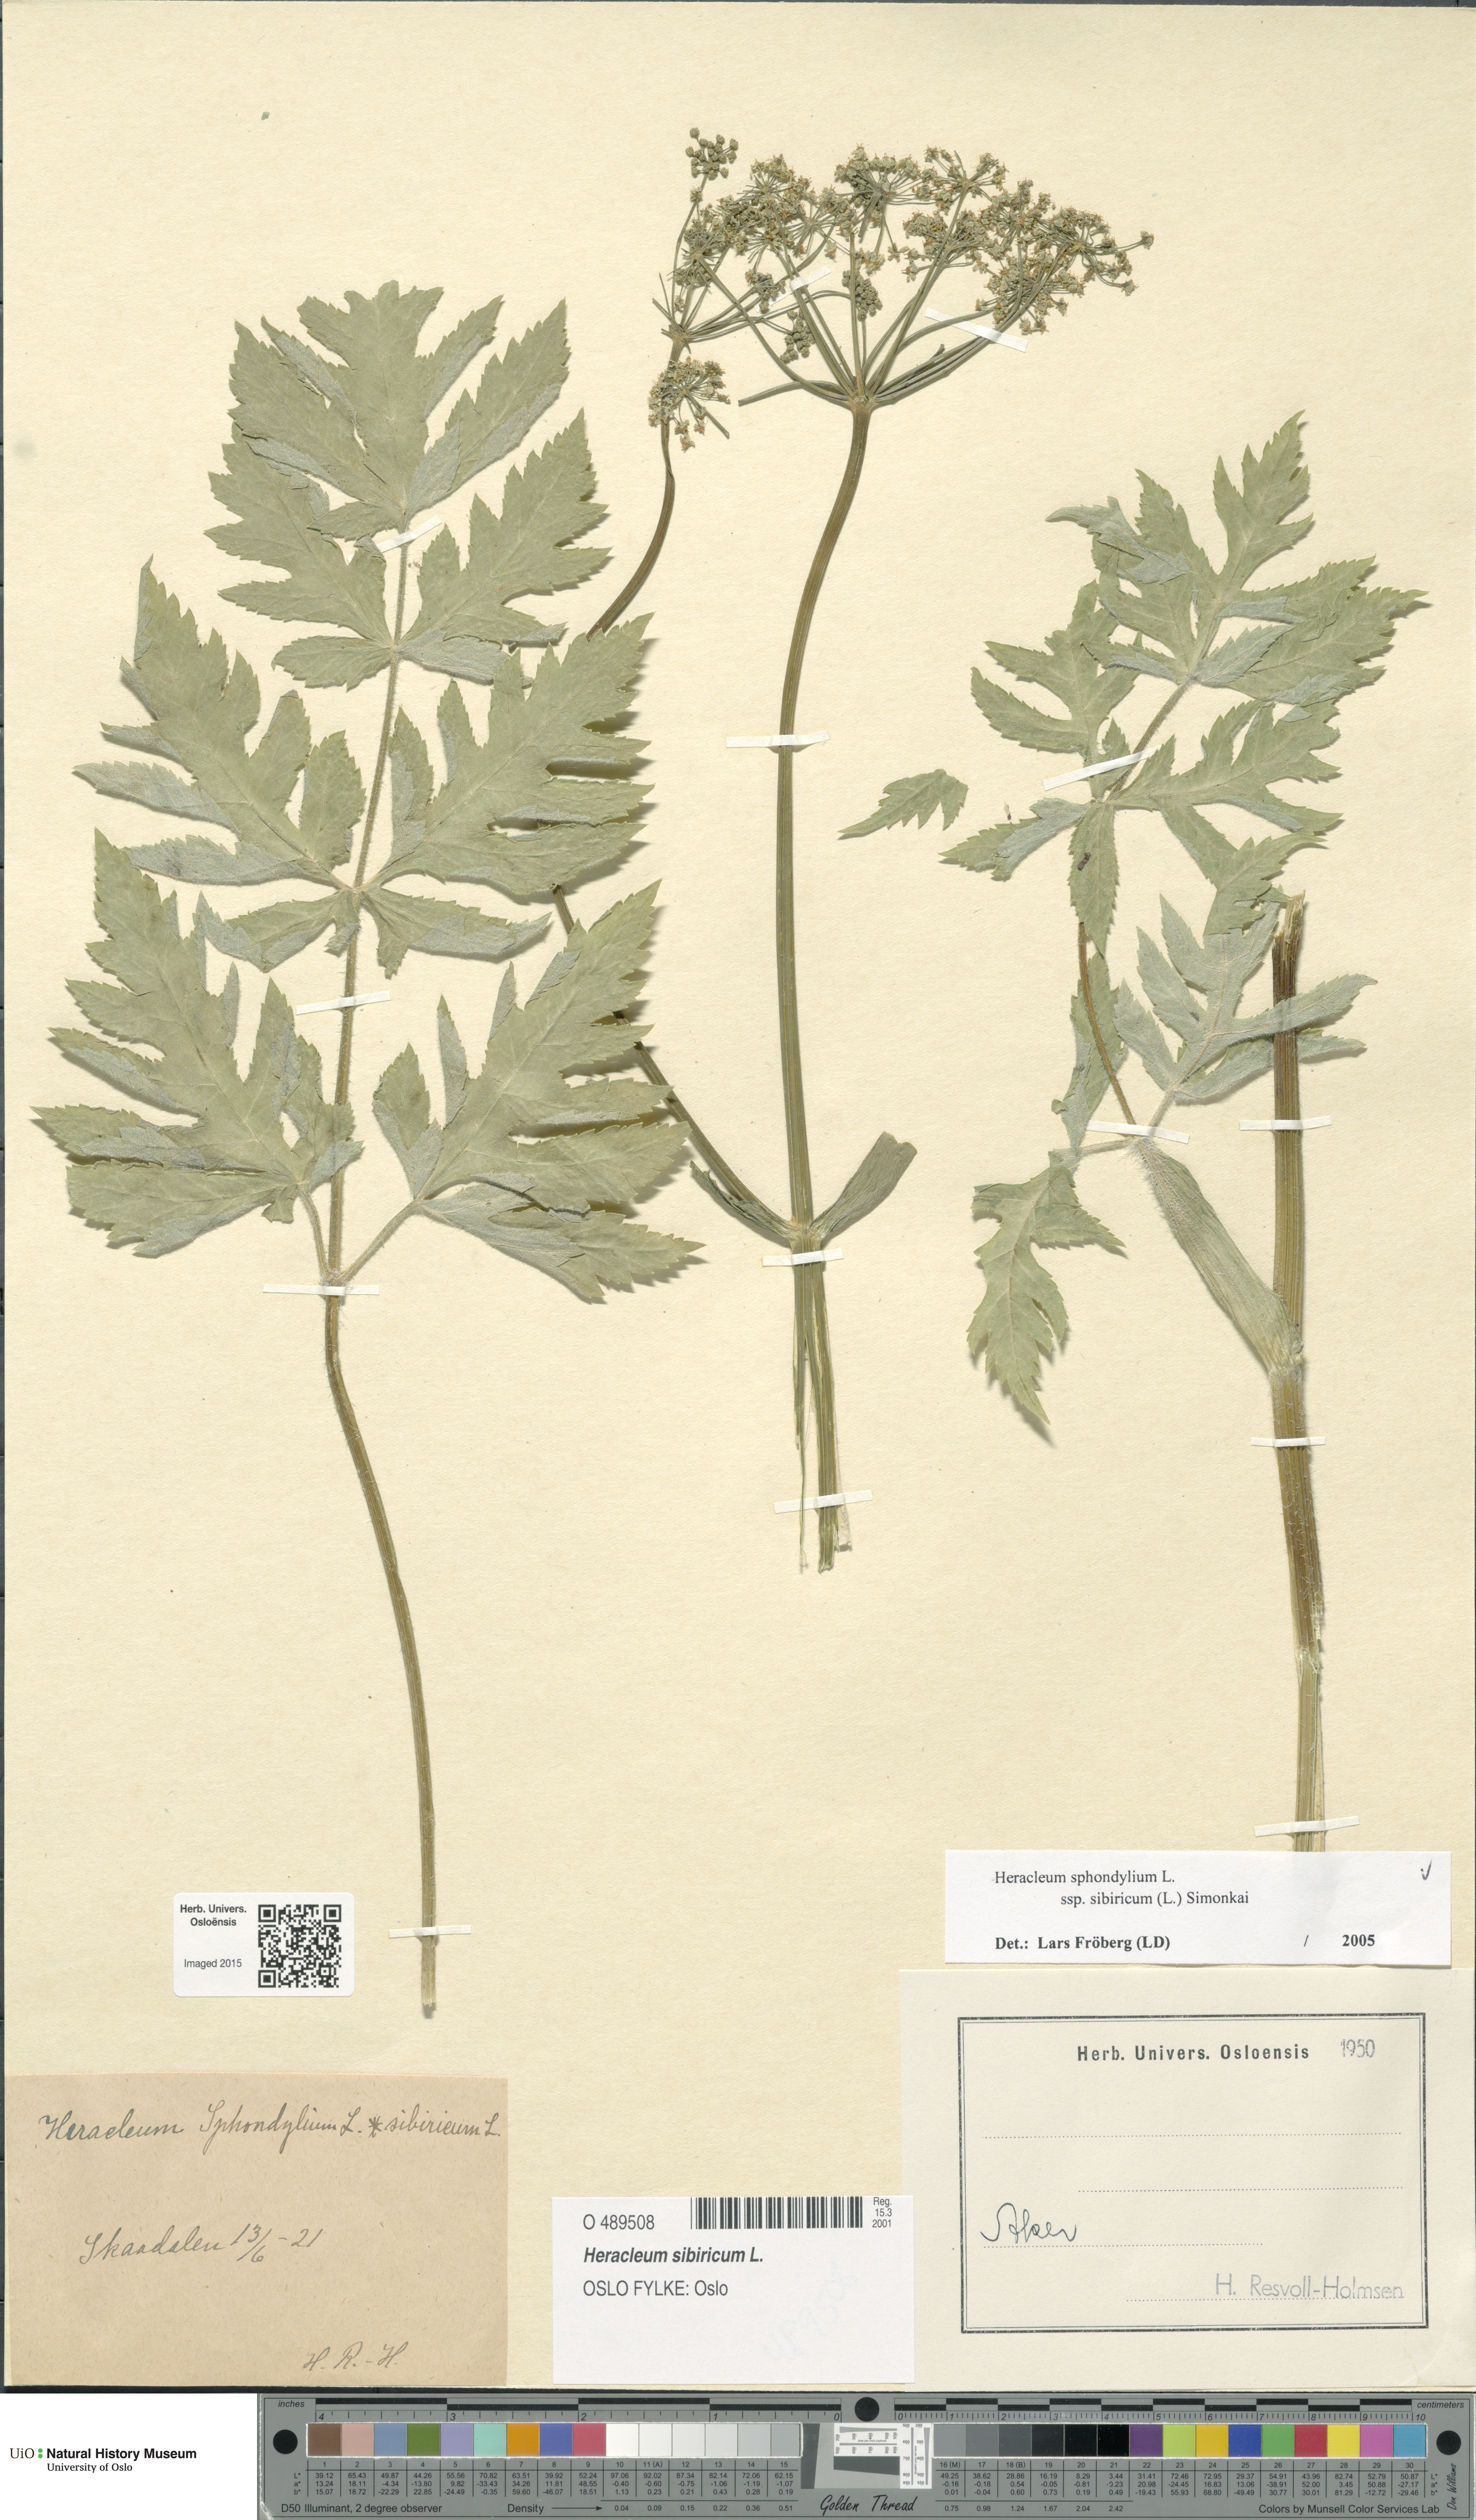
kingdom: Plantae
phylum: Tracheophyta
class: Magnoliopsida
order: Apiales
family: Apiaceae
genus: Heracleum
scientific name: Heracleum sphondylium
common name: Hogweed
